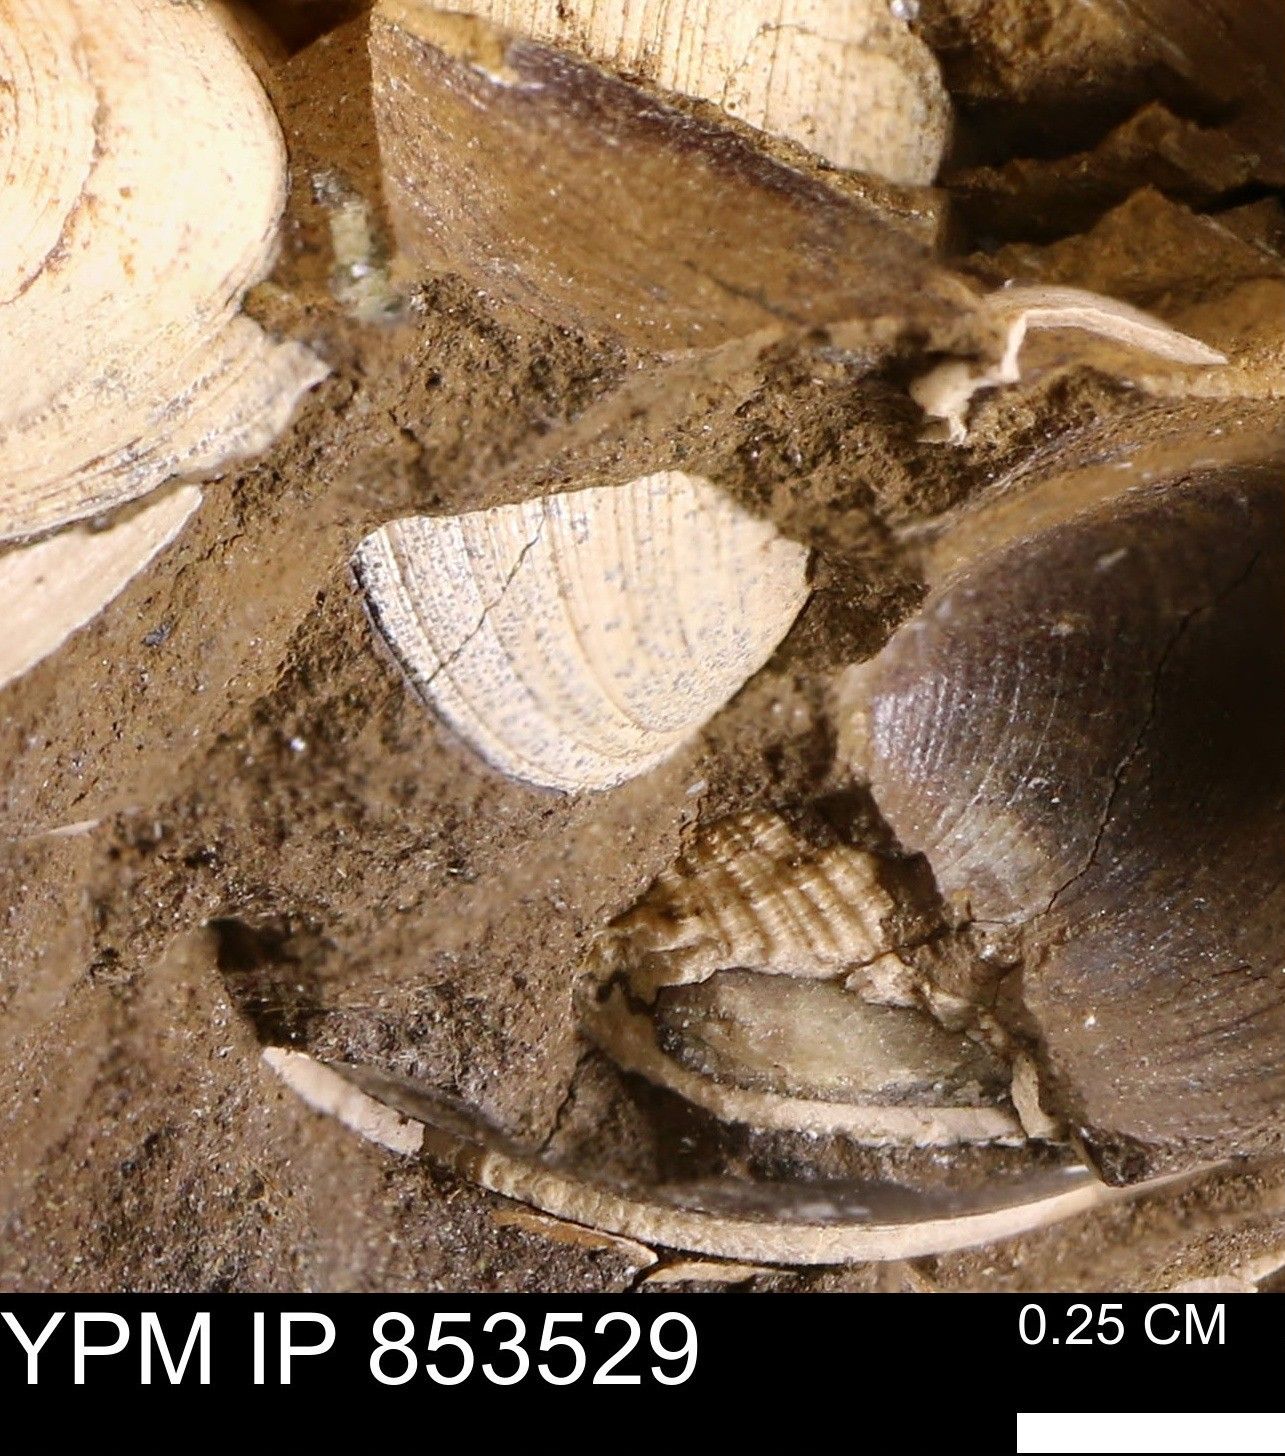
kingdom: Animalia
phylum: Mollusca
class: Bivalvia
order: Arcida
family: Limopsidae
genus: Limopsis
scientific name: Limopsis
